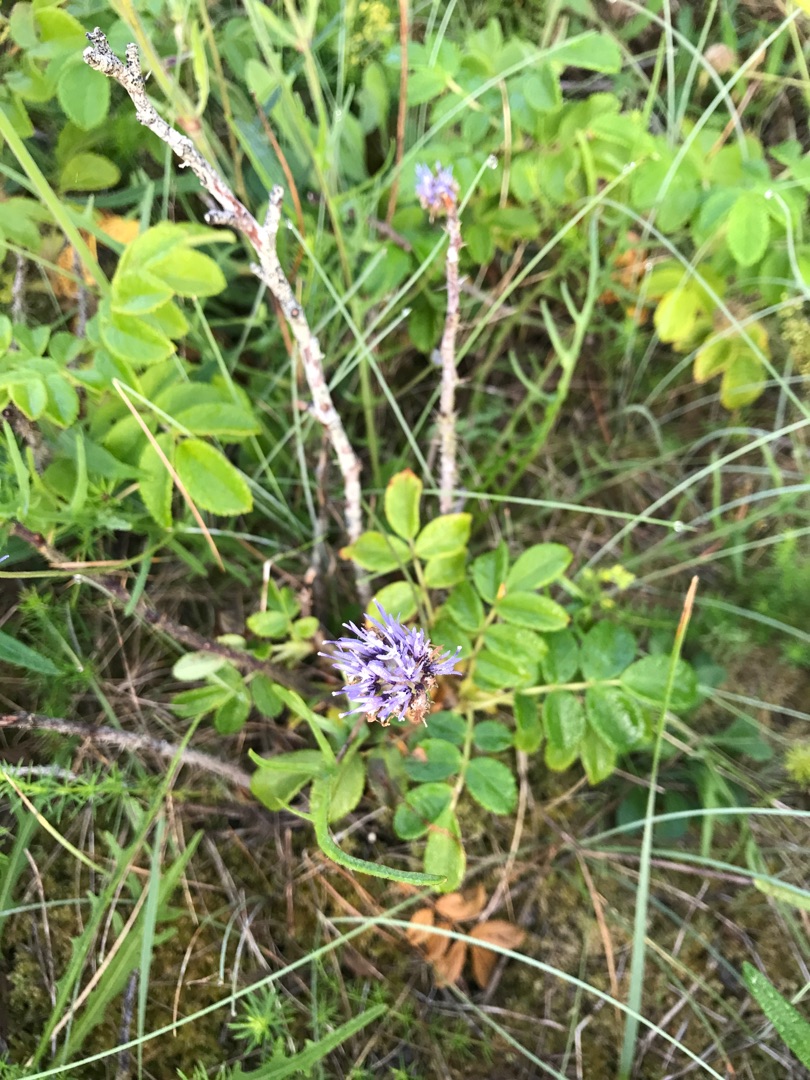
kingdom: Plantae
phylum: Tracheophyta
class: Magnoliopsida
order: Asterales
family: Campanulaceae
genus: Jasione
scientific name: Jasione montana
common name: Blåmunke
